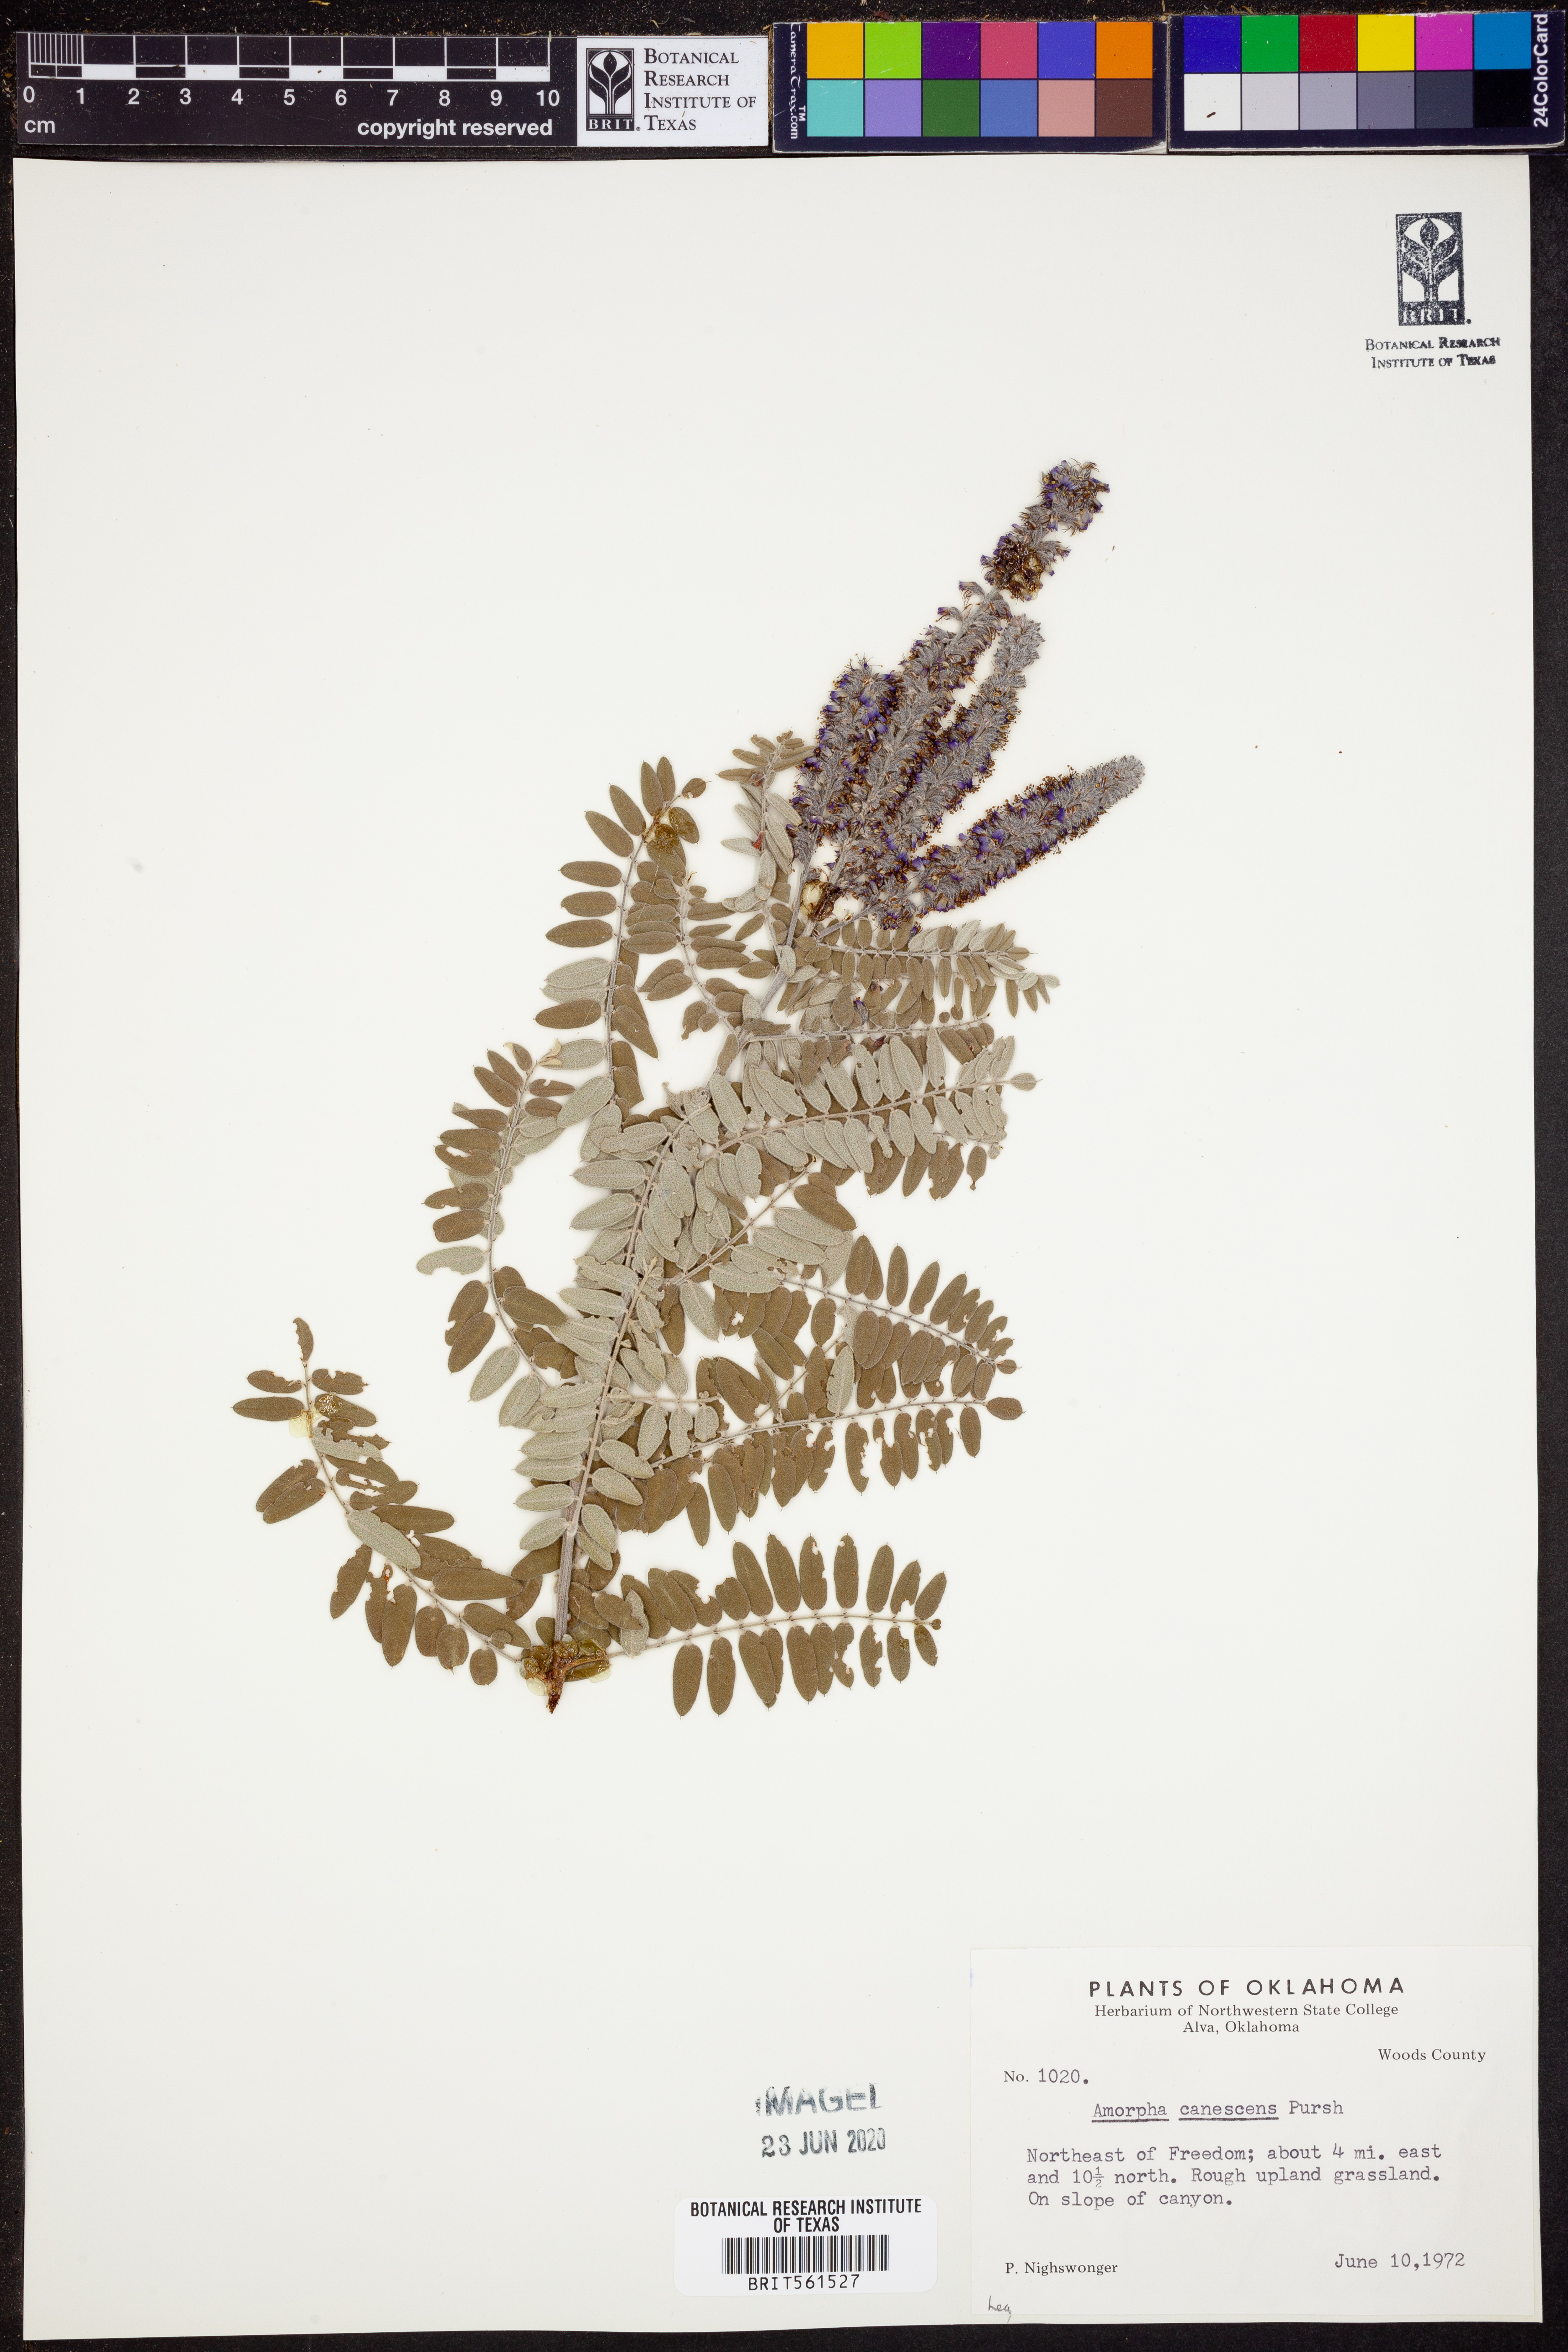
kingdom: Plantae
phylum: Tracheophyta
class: Magnoliopsida
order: Fabales
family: Fabaceae
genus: Amorpha
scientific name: Amorpha canescens
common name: Leadplant
